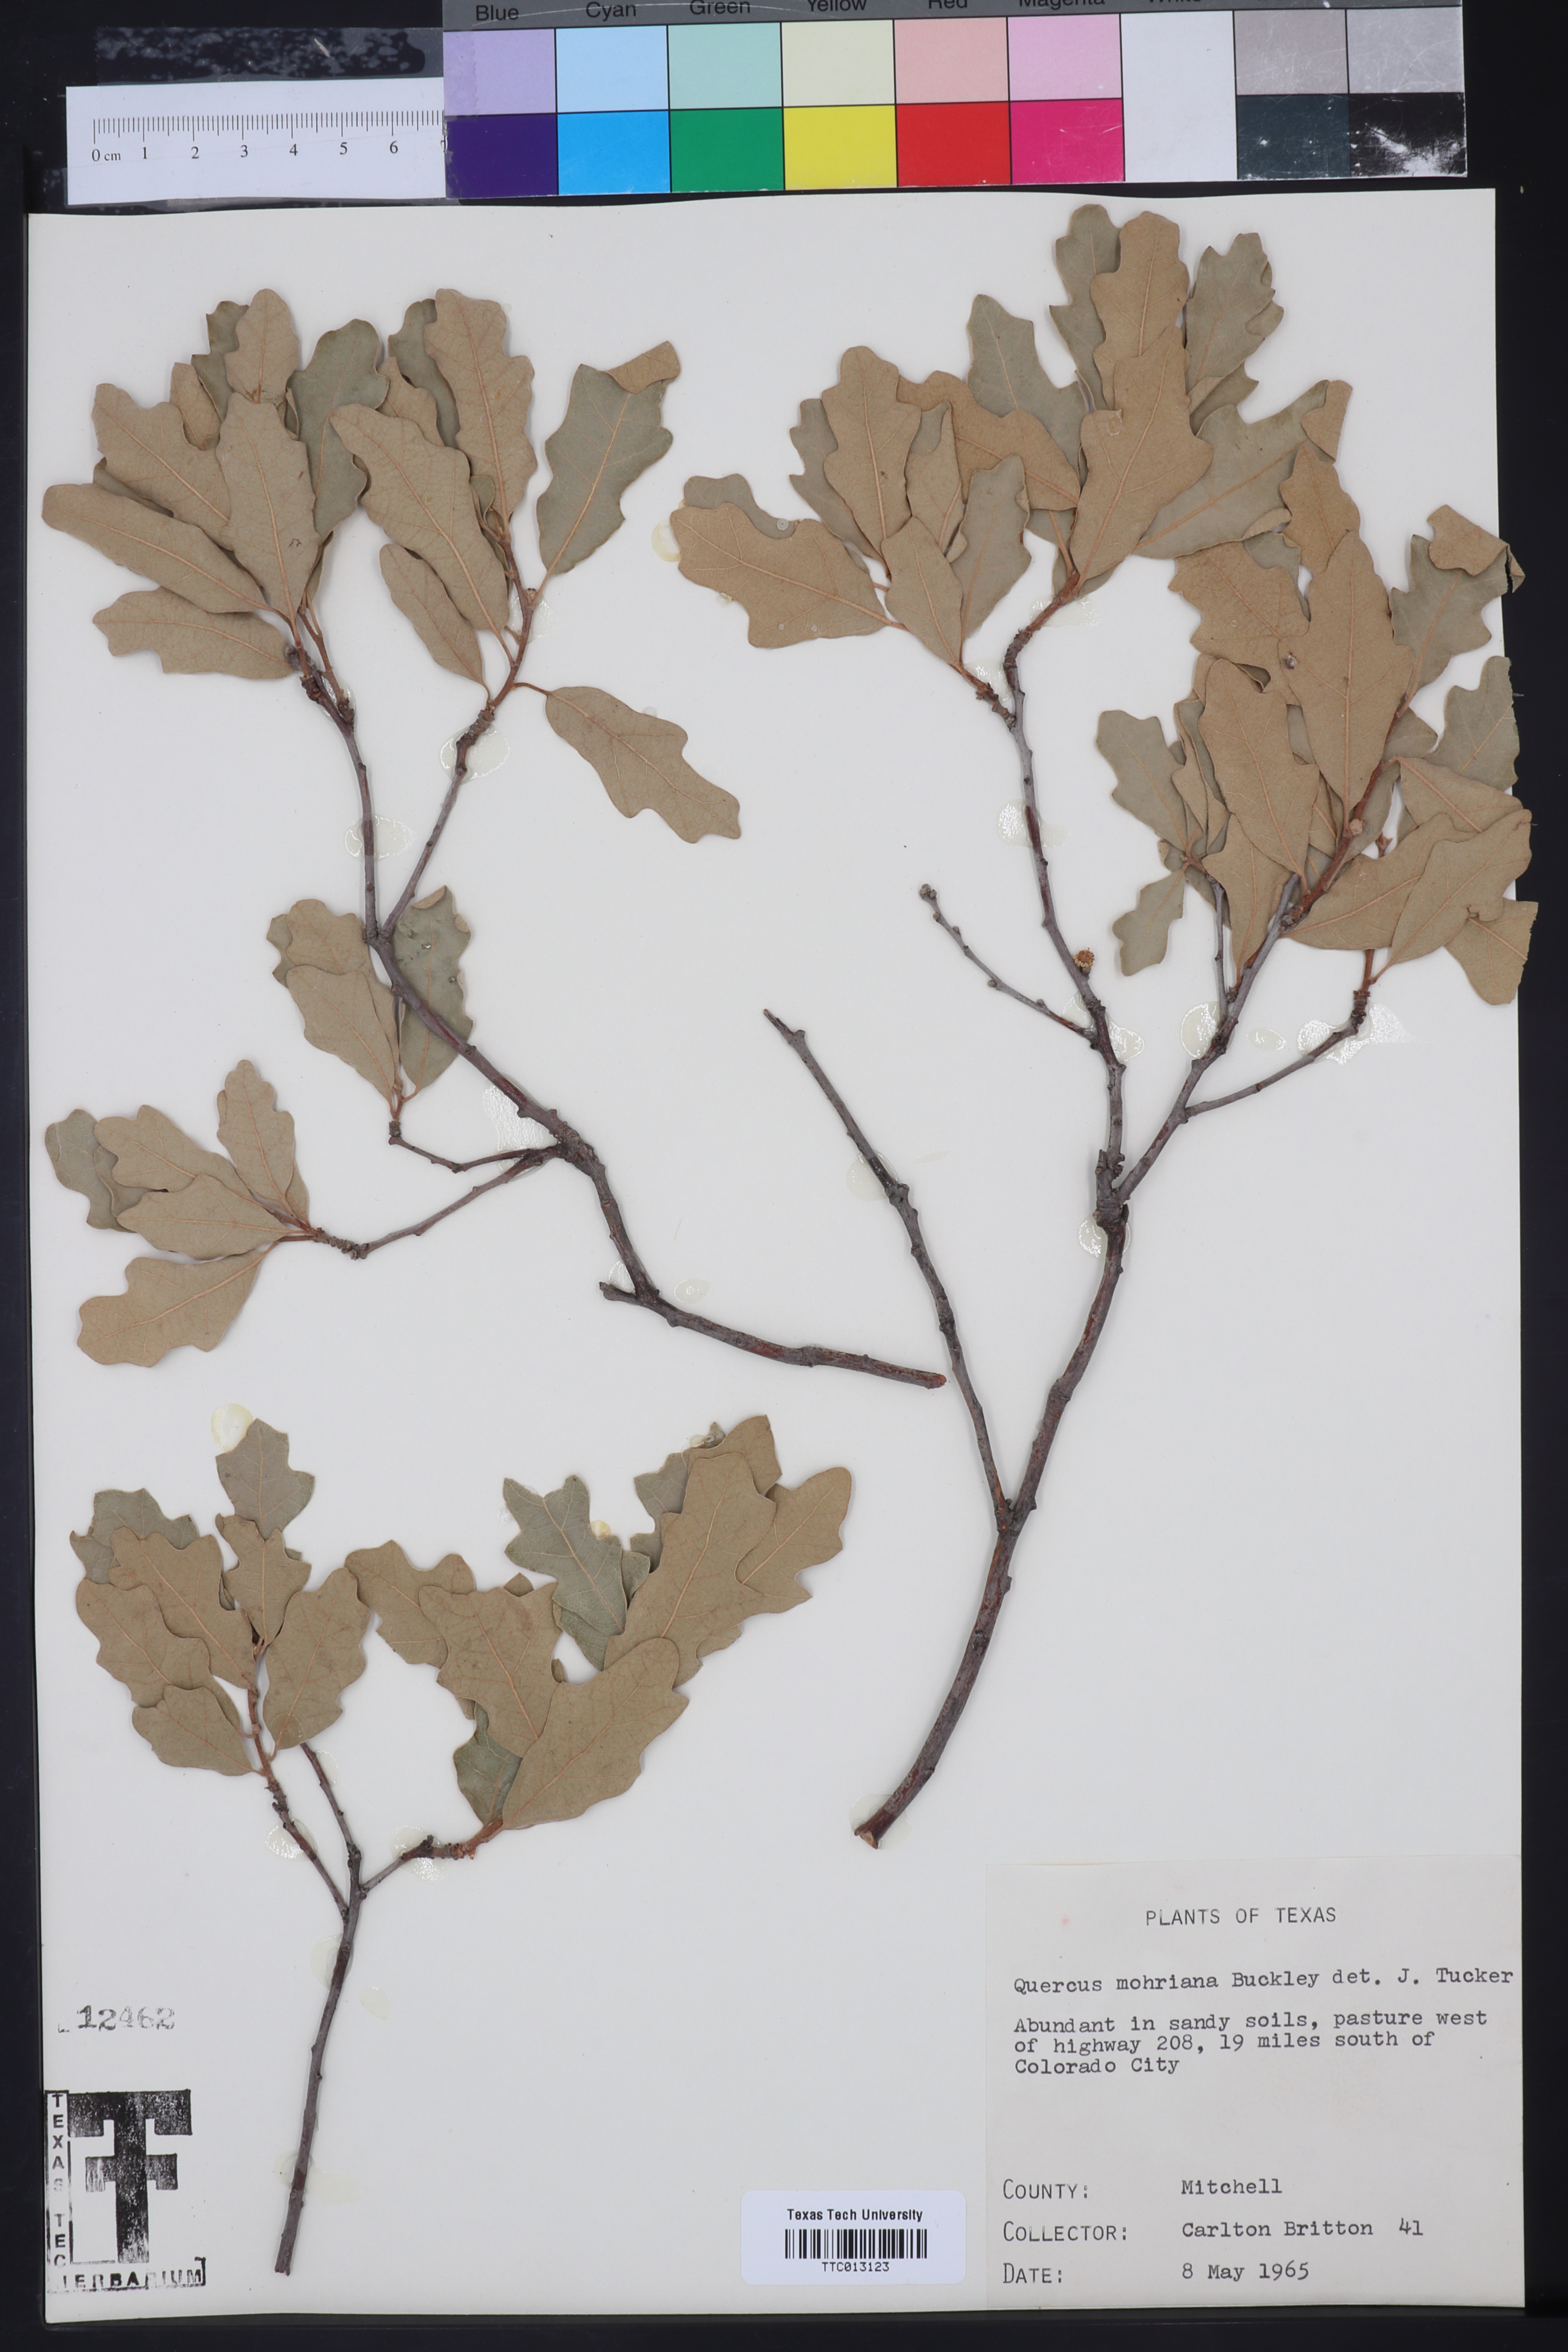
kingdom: Plantae
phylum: Tracheophyta
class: Magnoliopsida
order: Fagales
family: Fagaceae
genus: Quercus
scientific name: Quercus mohriana
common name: Mohr oak
